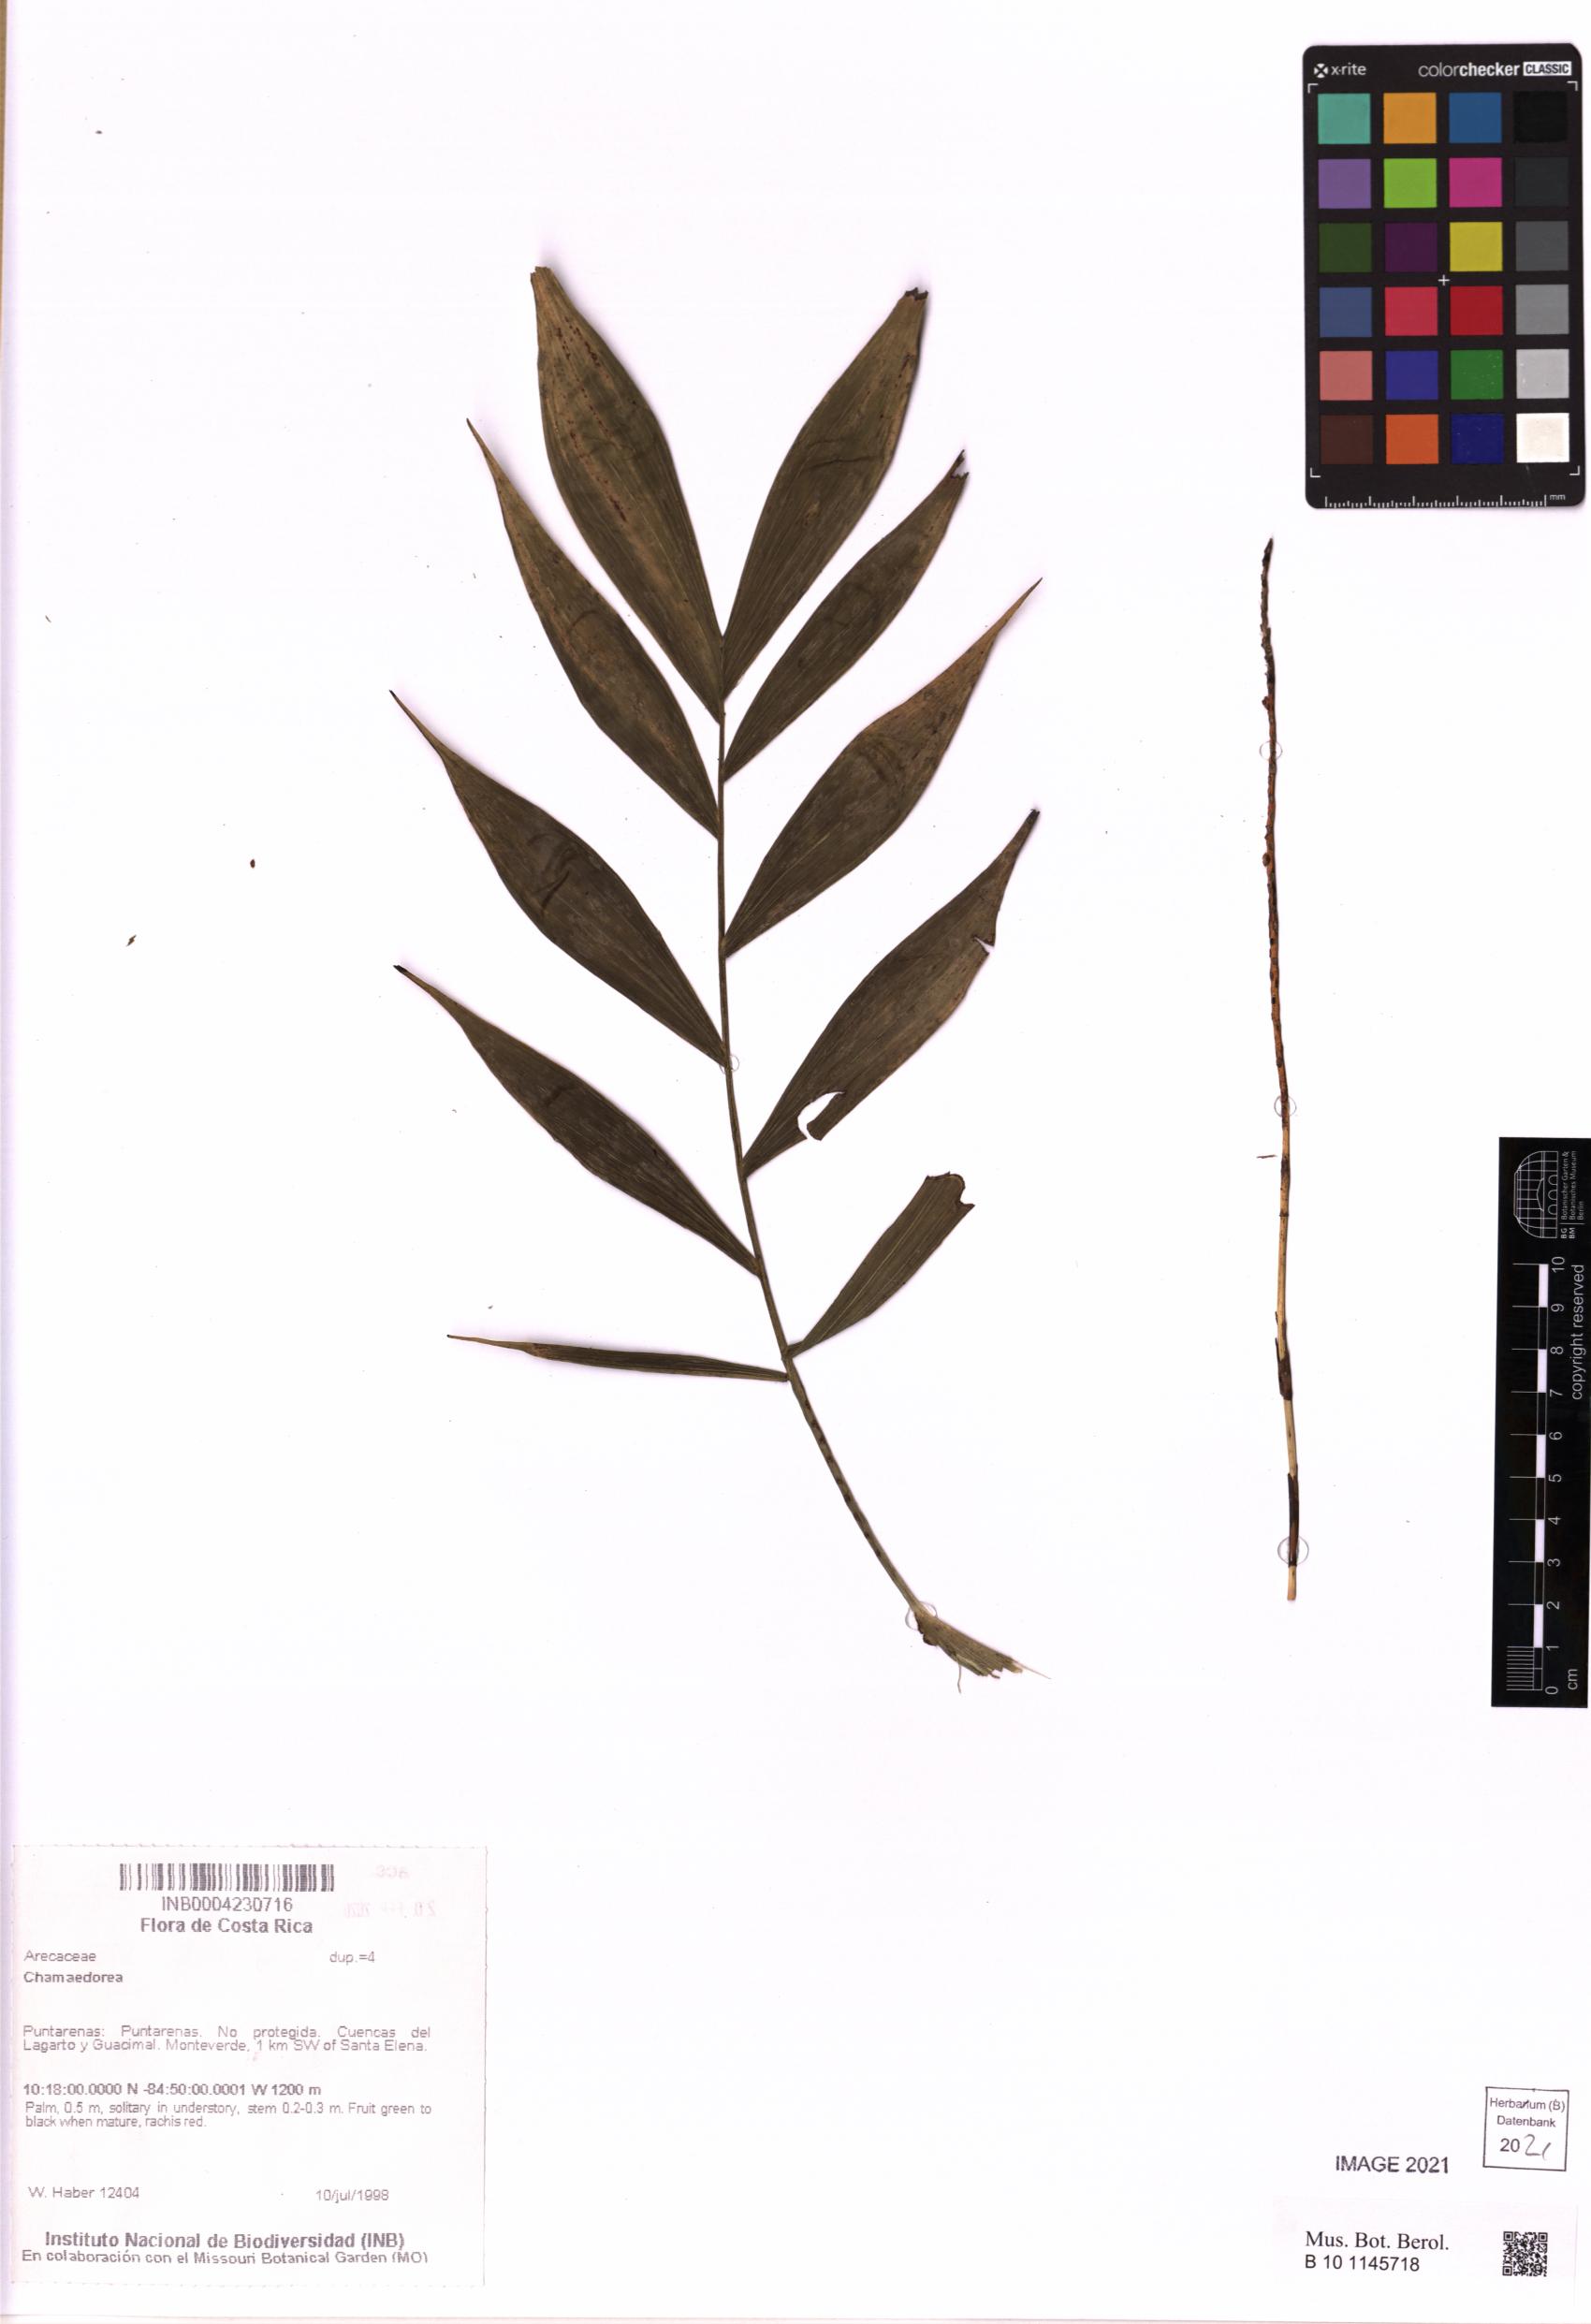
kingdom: Plantae
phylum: Tracheophyta
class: Liliopsida
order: Arecales
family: Arecaceae
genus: Chamaedorea
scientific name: Chamaedorea
